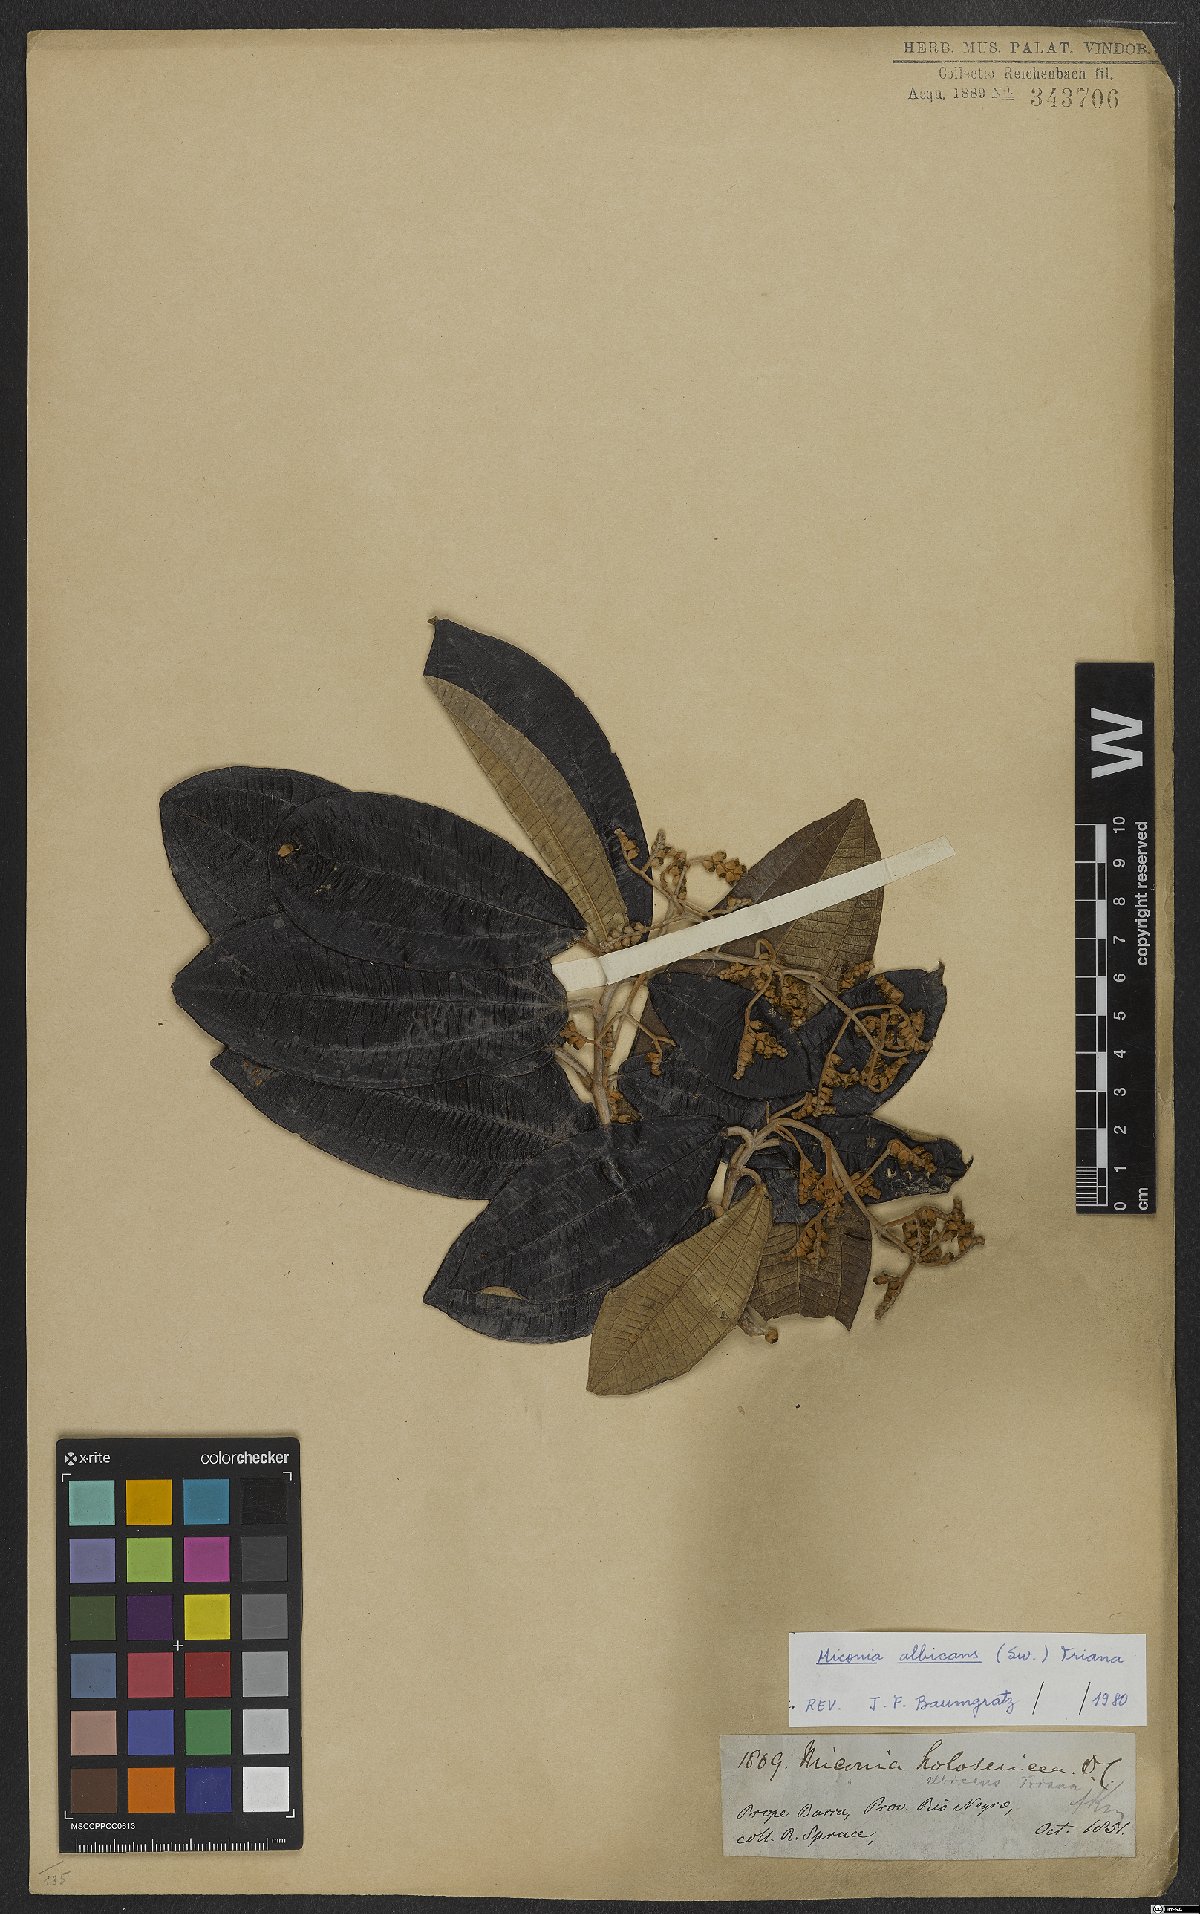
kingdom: Plantae
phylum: Tracheophyta
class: Magnoliopsida
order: Myrtales
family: Melastomataceae
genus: Miconia
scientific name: Miconia albicans
